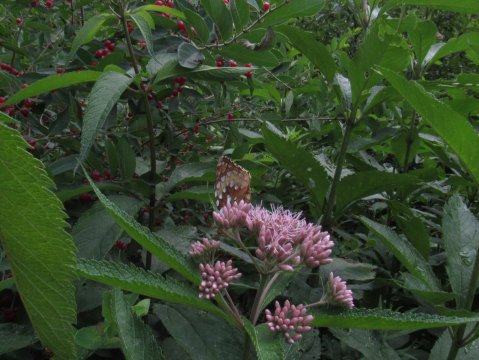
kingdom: Animalia
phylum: Arthropoda
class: Insecta
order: Lepidoptera
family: Nymphalidae
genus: Speyeria
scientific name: Speyeria cybele
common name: Great Spangled Fritillary
